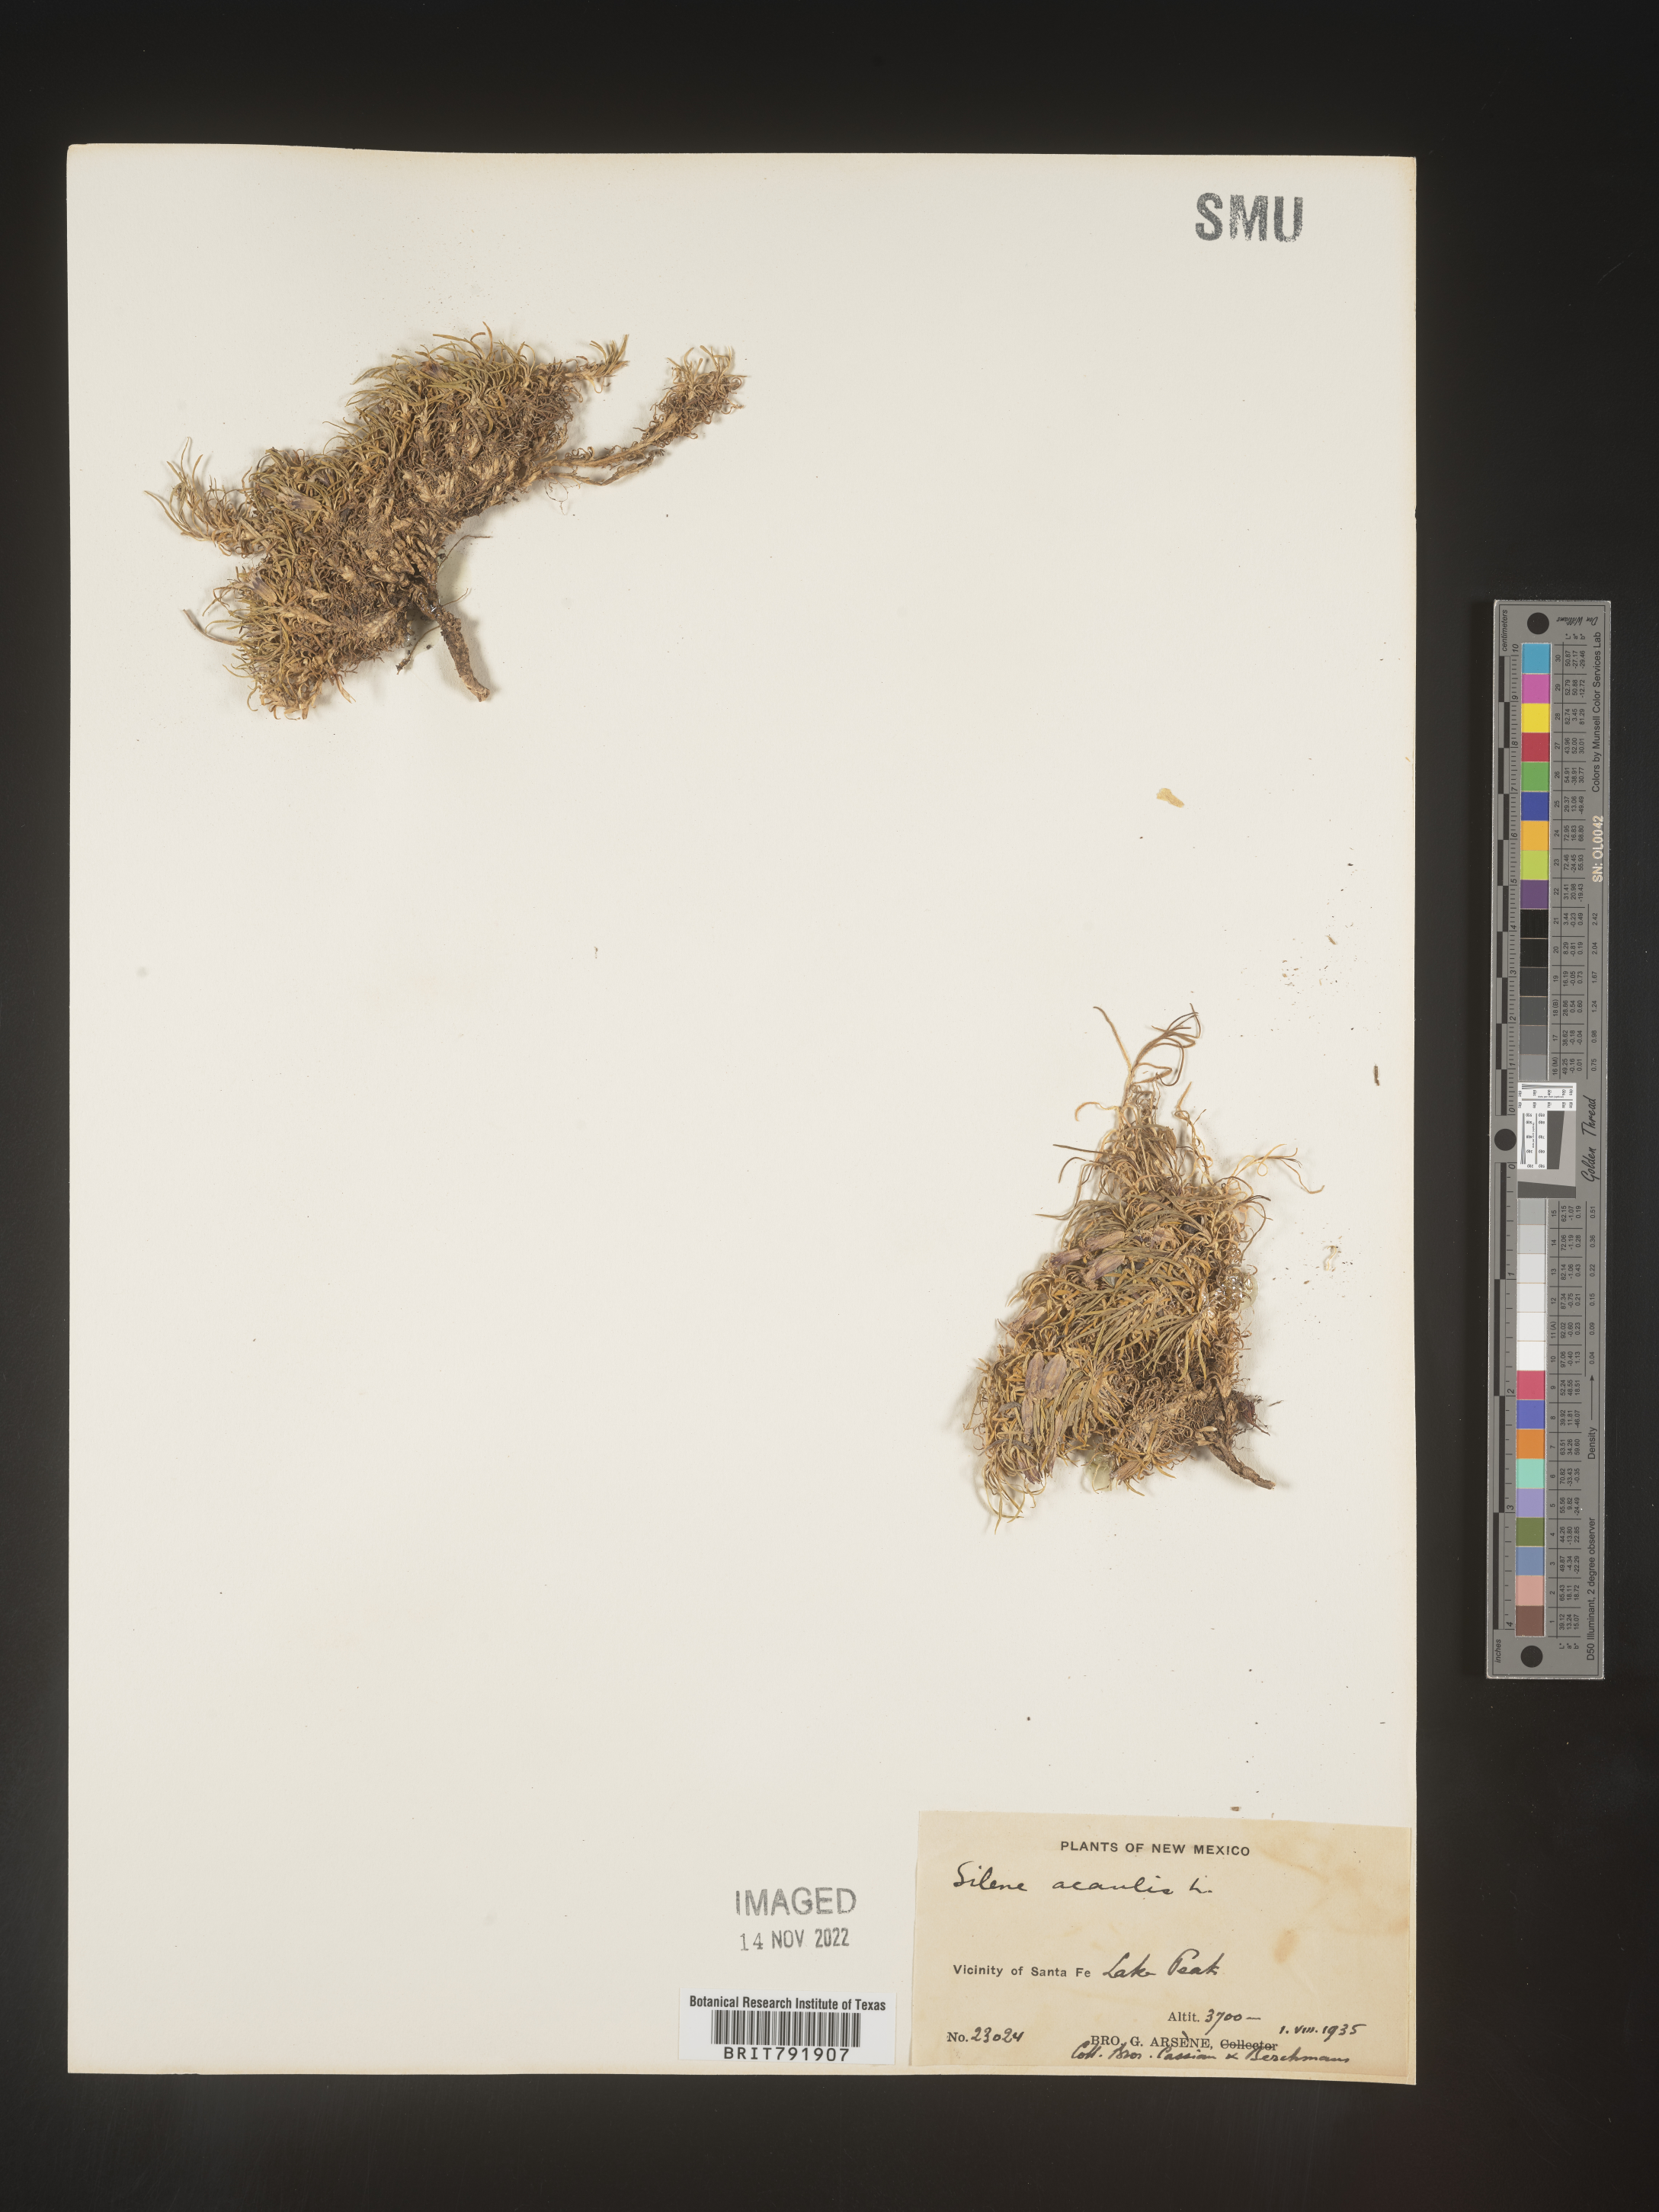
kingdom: Plantae
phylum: Tracheophyta
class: Magnoliopsida
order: Caryophyllales
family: Caryophyllaceae
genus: Silene
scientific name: Silene acaulis
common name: Moss campion
